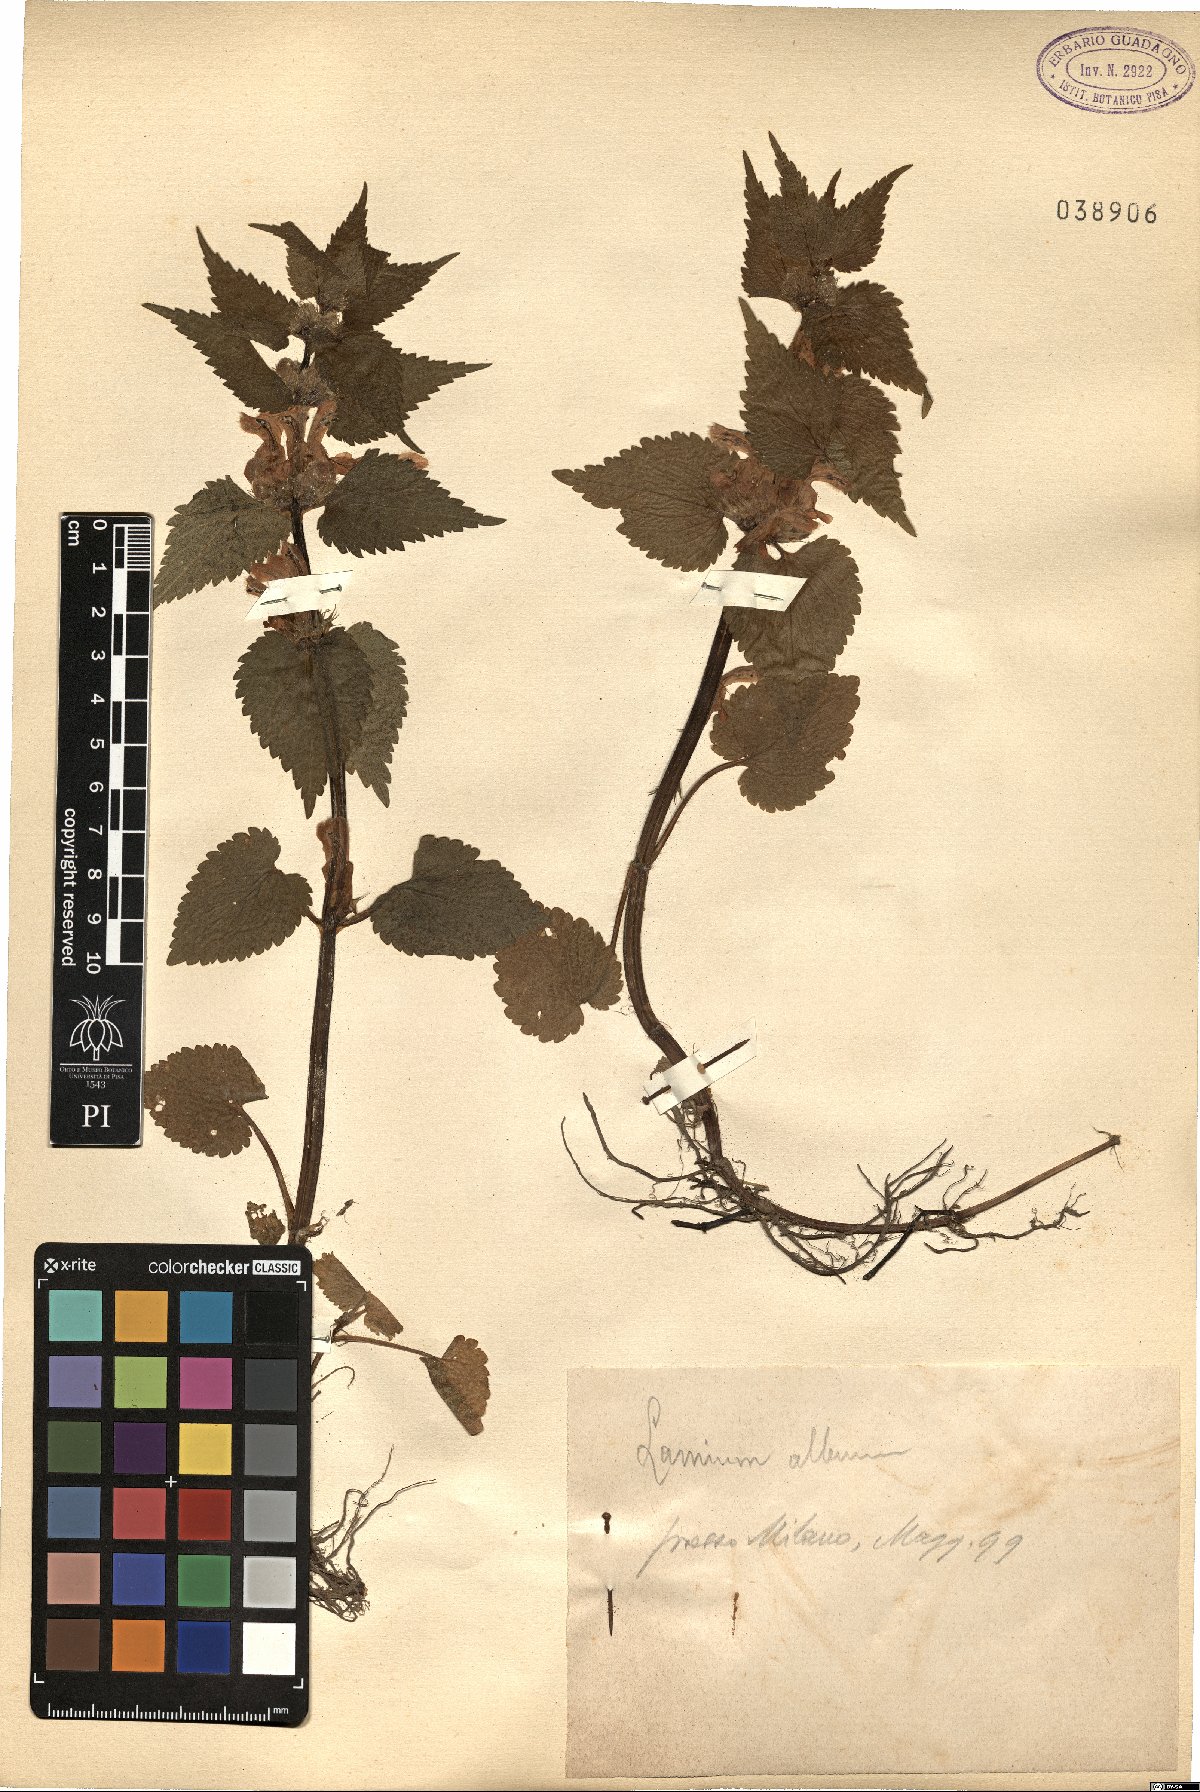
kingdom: Plantae
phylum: Tracheophyta
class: Magnoliopsida
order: Lamiales
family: Lamiaceae
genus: Lamium
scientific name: Lamium album
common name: White dead-nettle
